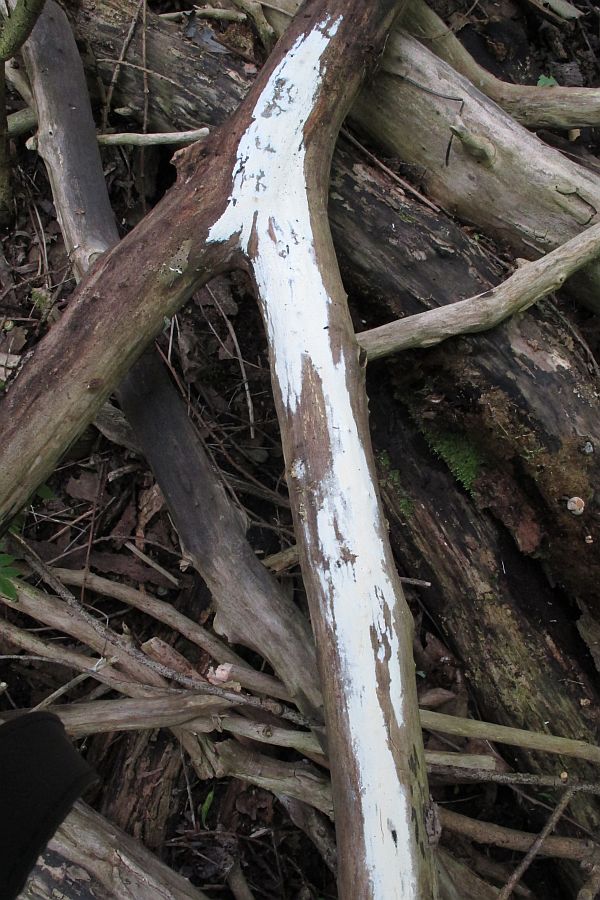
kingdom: Fungi
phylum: Basidiomycota
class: Agaricomycetes
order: Polyporales
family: Phanerochaetaceae
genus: Phanerochaete
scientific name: Phanerochaete sordida
